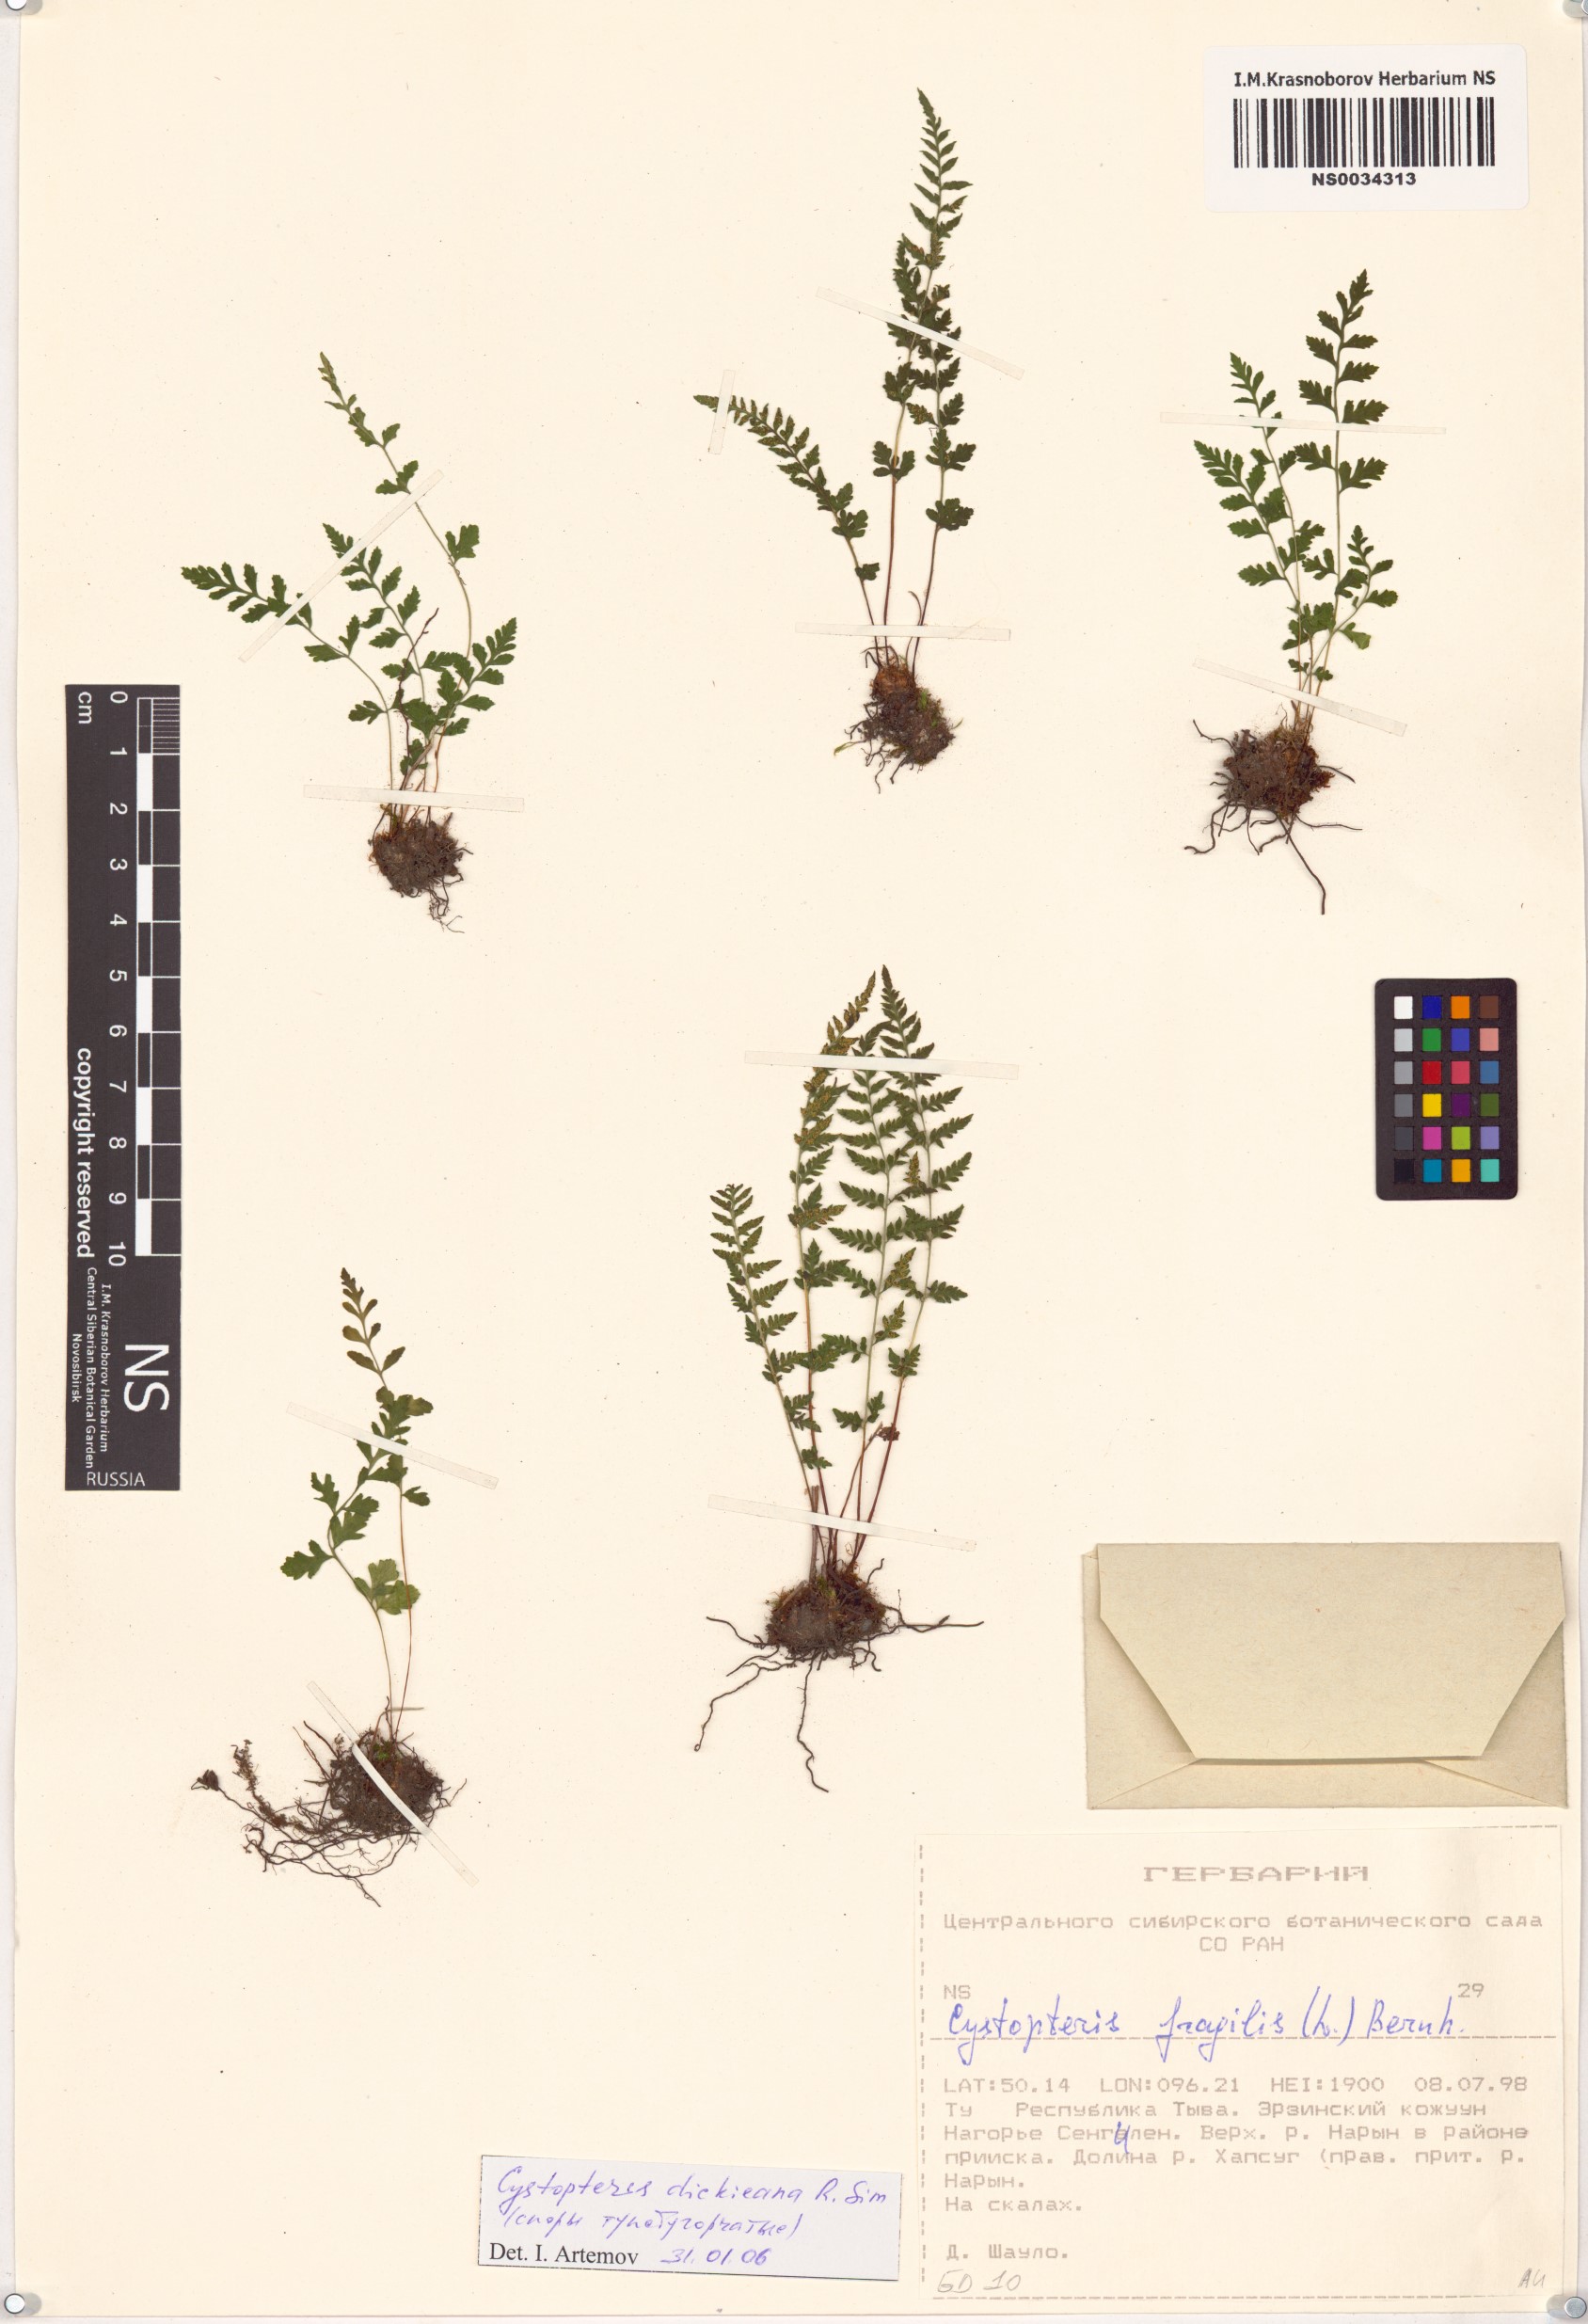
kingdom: Plantae
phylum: Tracheophyta
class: Polypodiopsida
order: Polypodiales
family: Cystopteridaceae
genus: Cystopteris
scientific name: Cystopteris dickieana
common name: Dickie's bladder-fern
